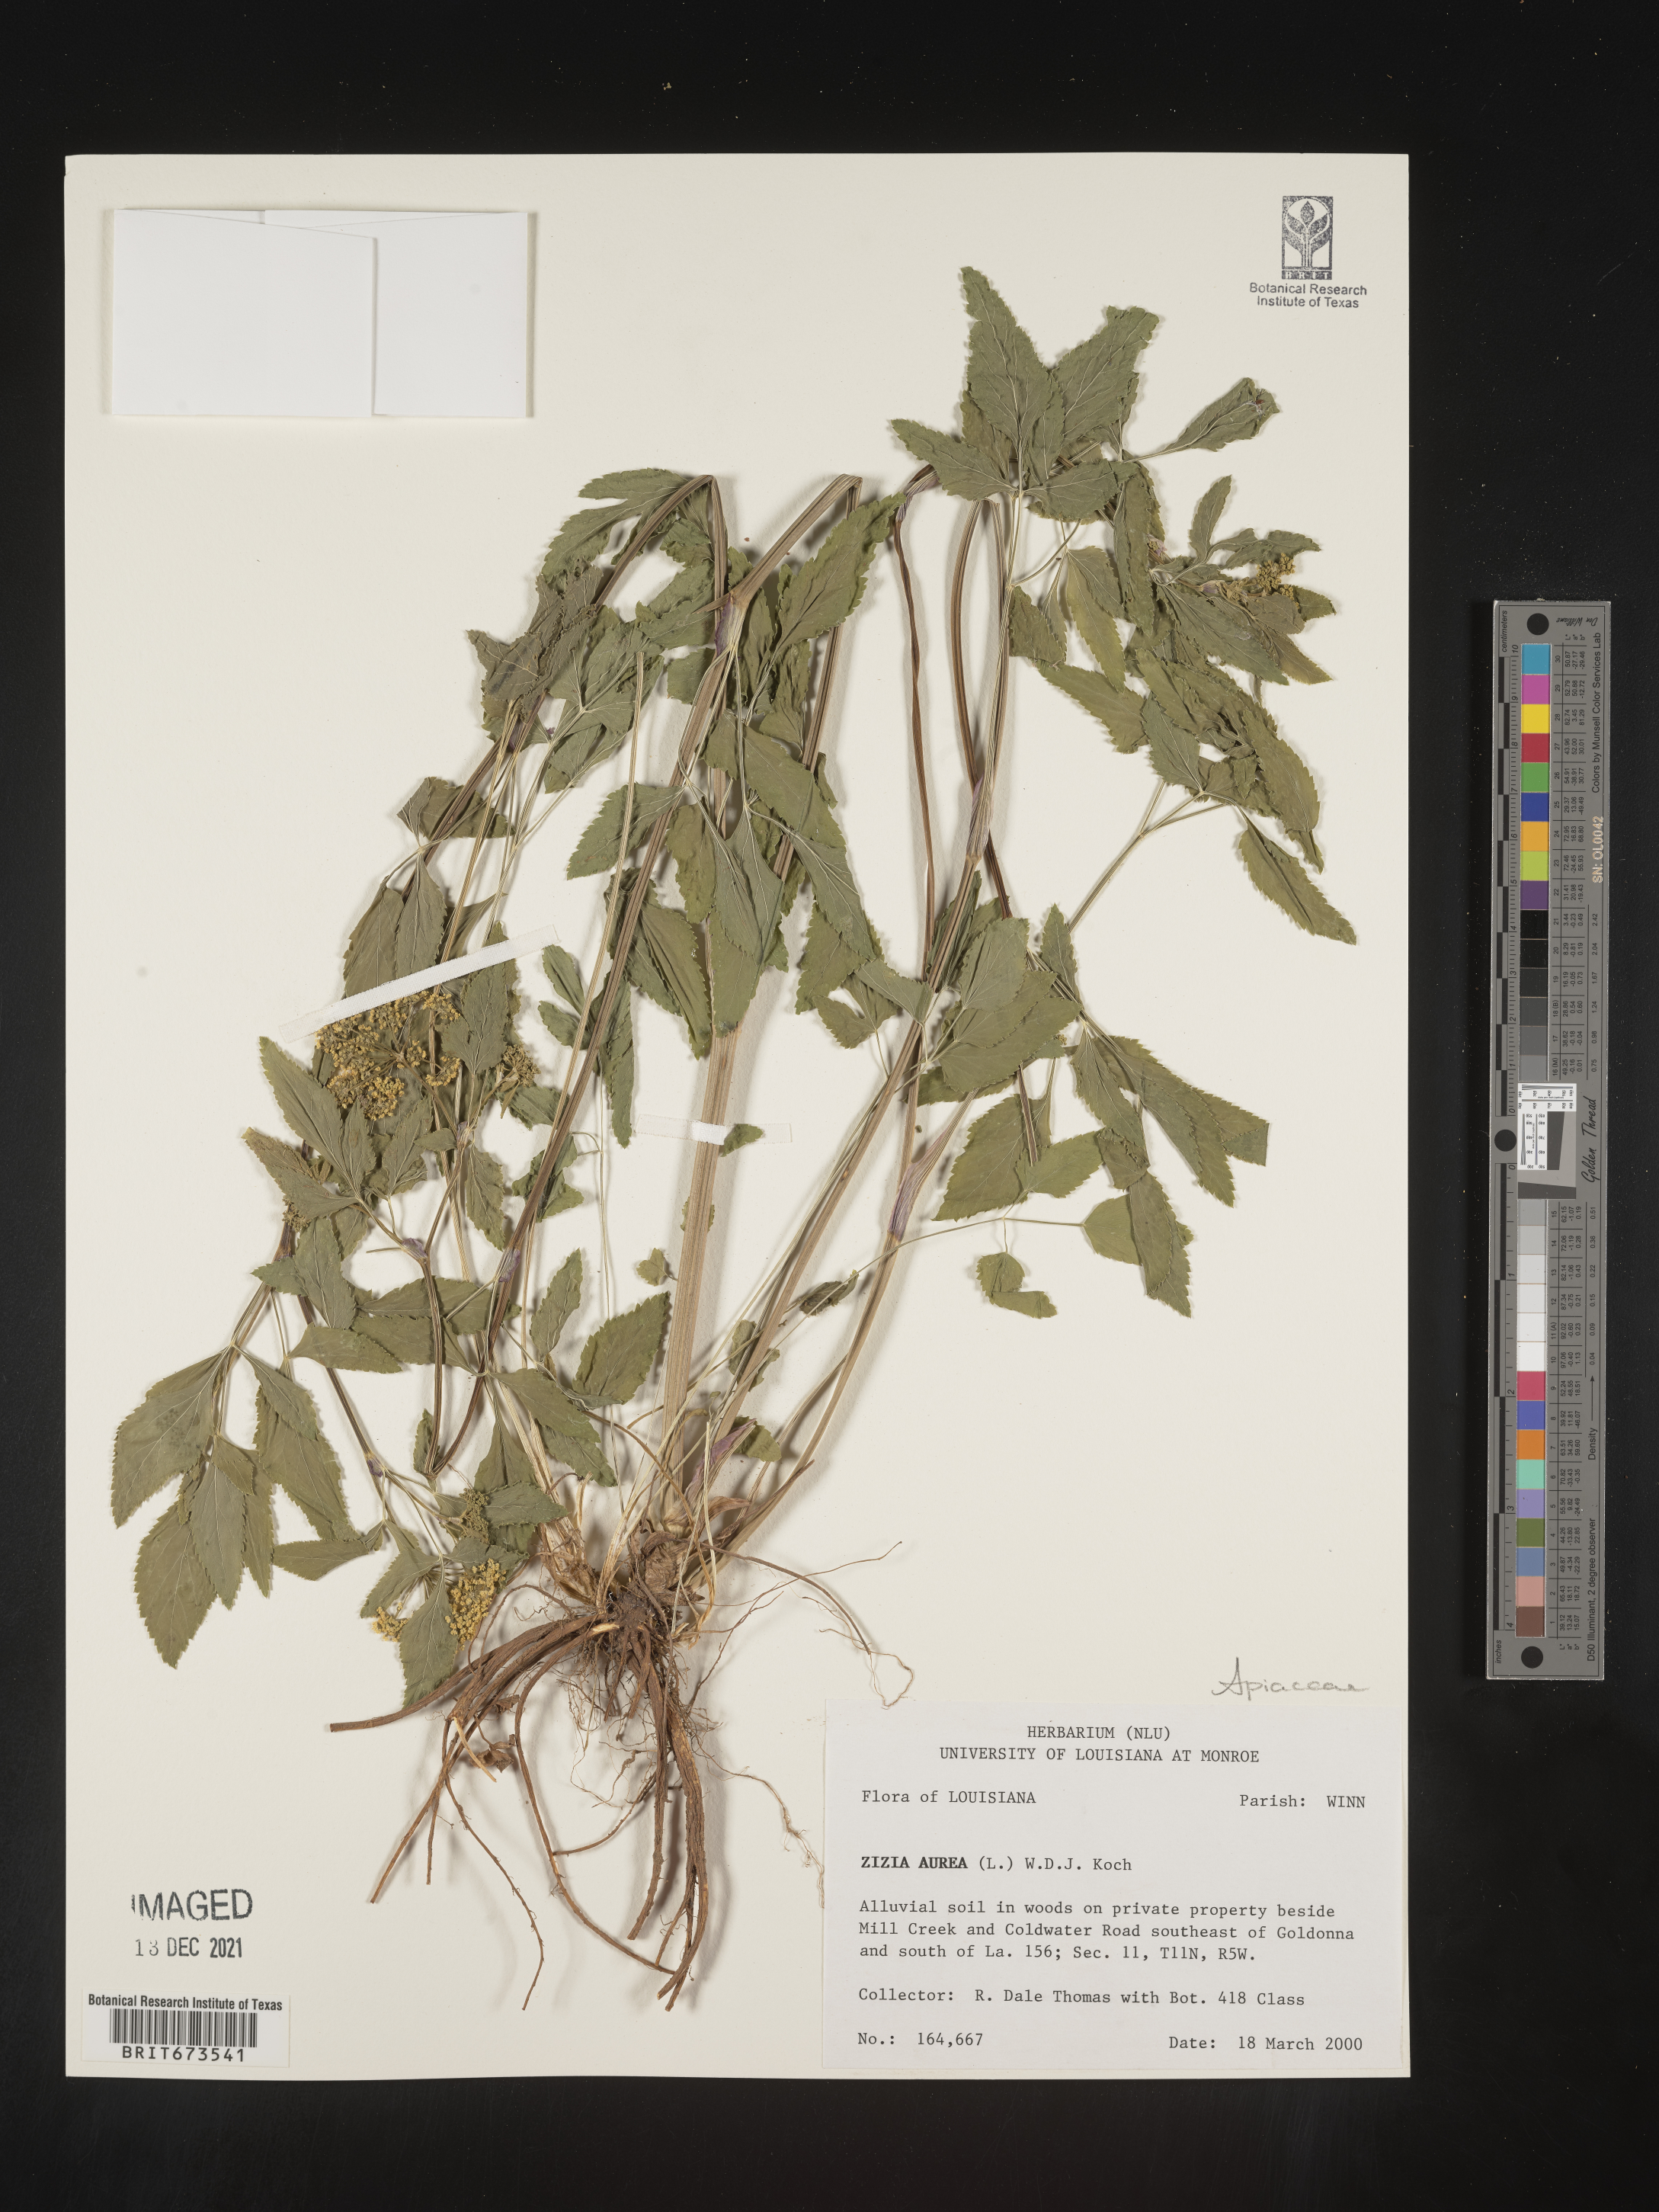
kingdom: Plantae
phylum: Tracheophyta
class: Magnoliopsida
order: Apiales
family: Apiaceae
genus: Zizia
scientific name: Zizia aurea
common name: Golden alexanders
